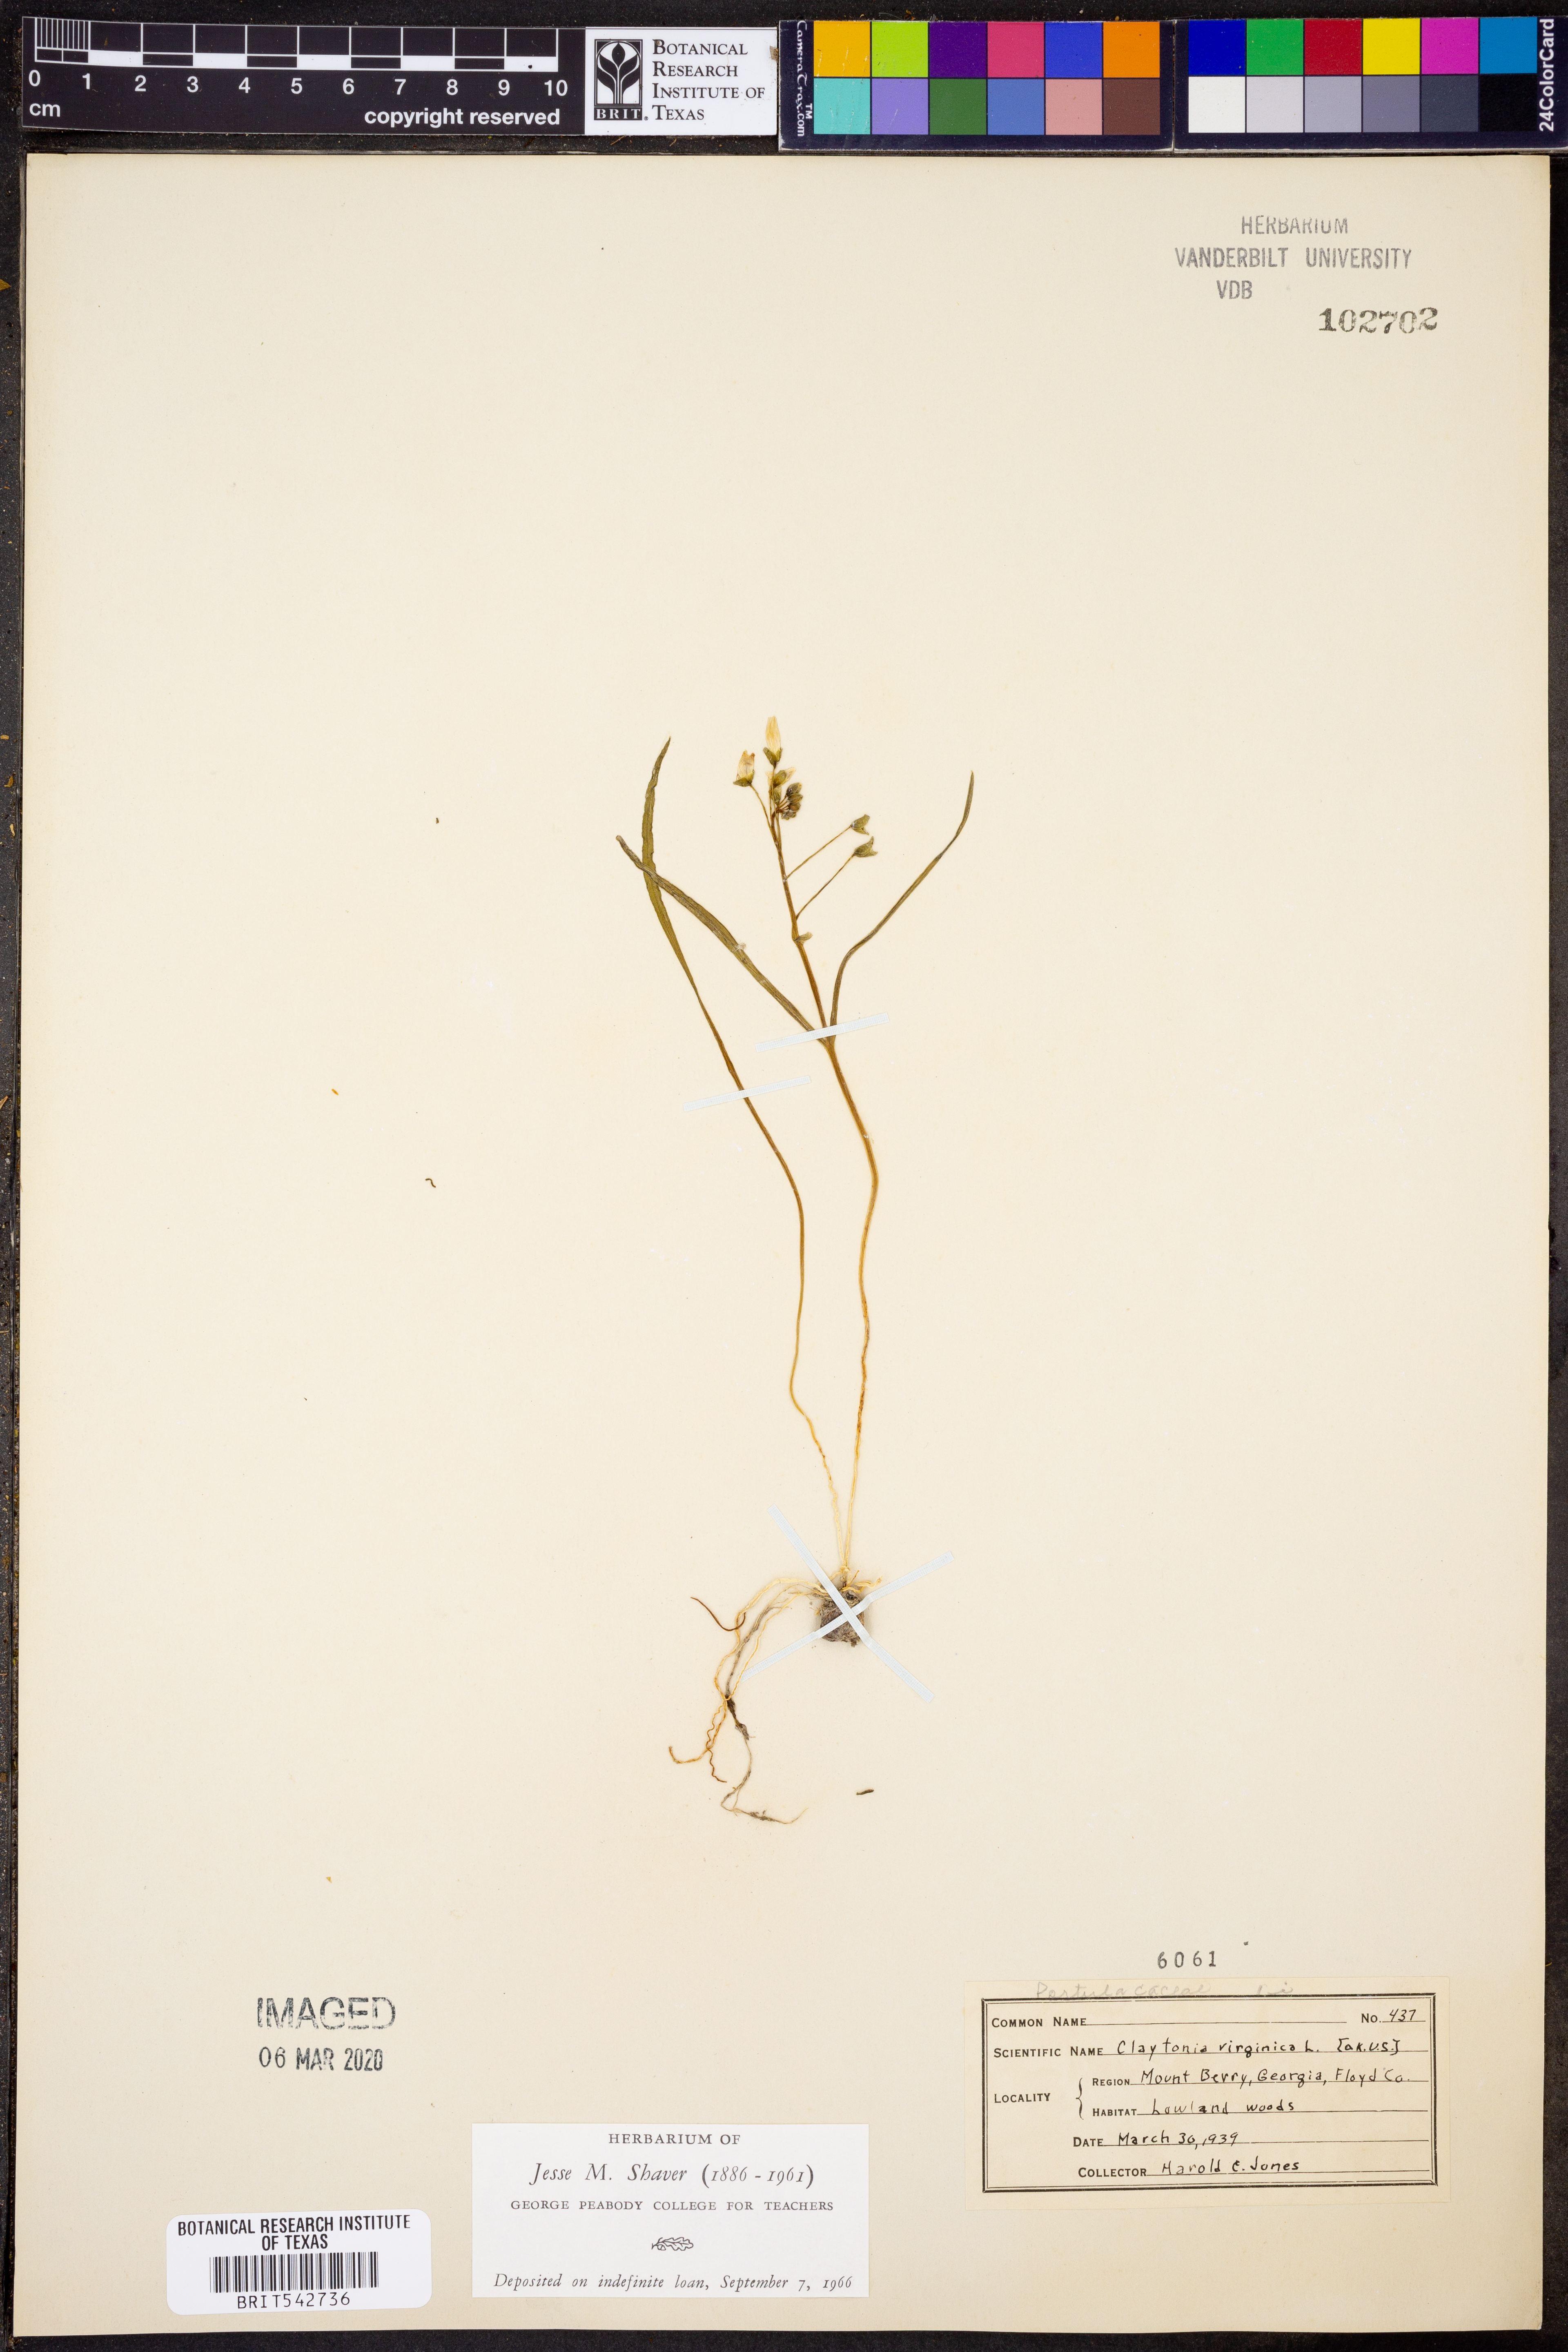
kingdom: Plantae
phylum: Tracheophyta
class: Magnoliopsida
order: Caryophyllales
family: Montiaceae
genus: Claytonia
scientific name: Claytonia virginica
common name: Virginia springbeauty
